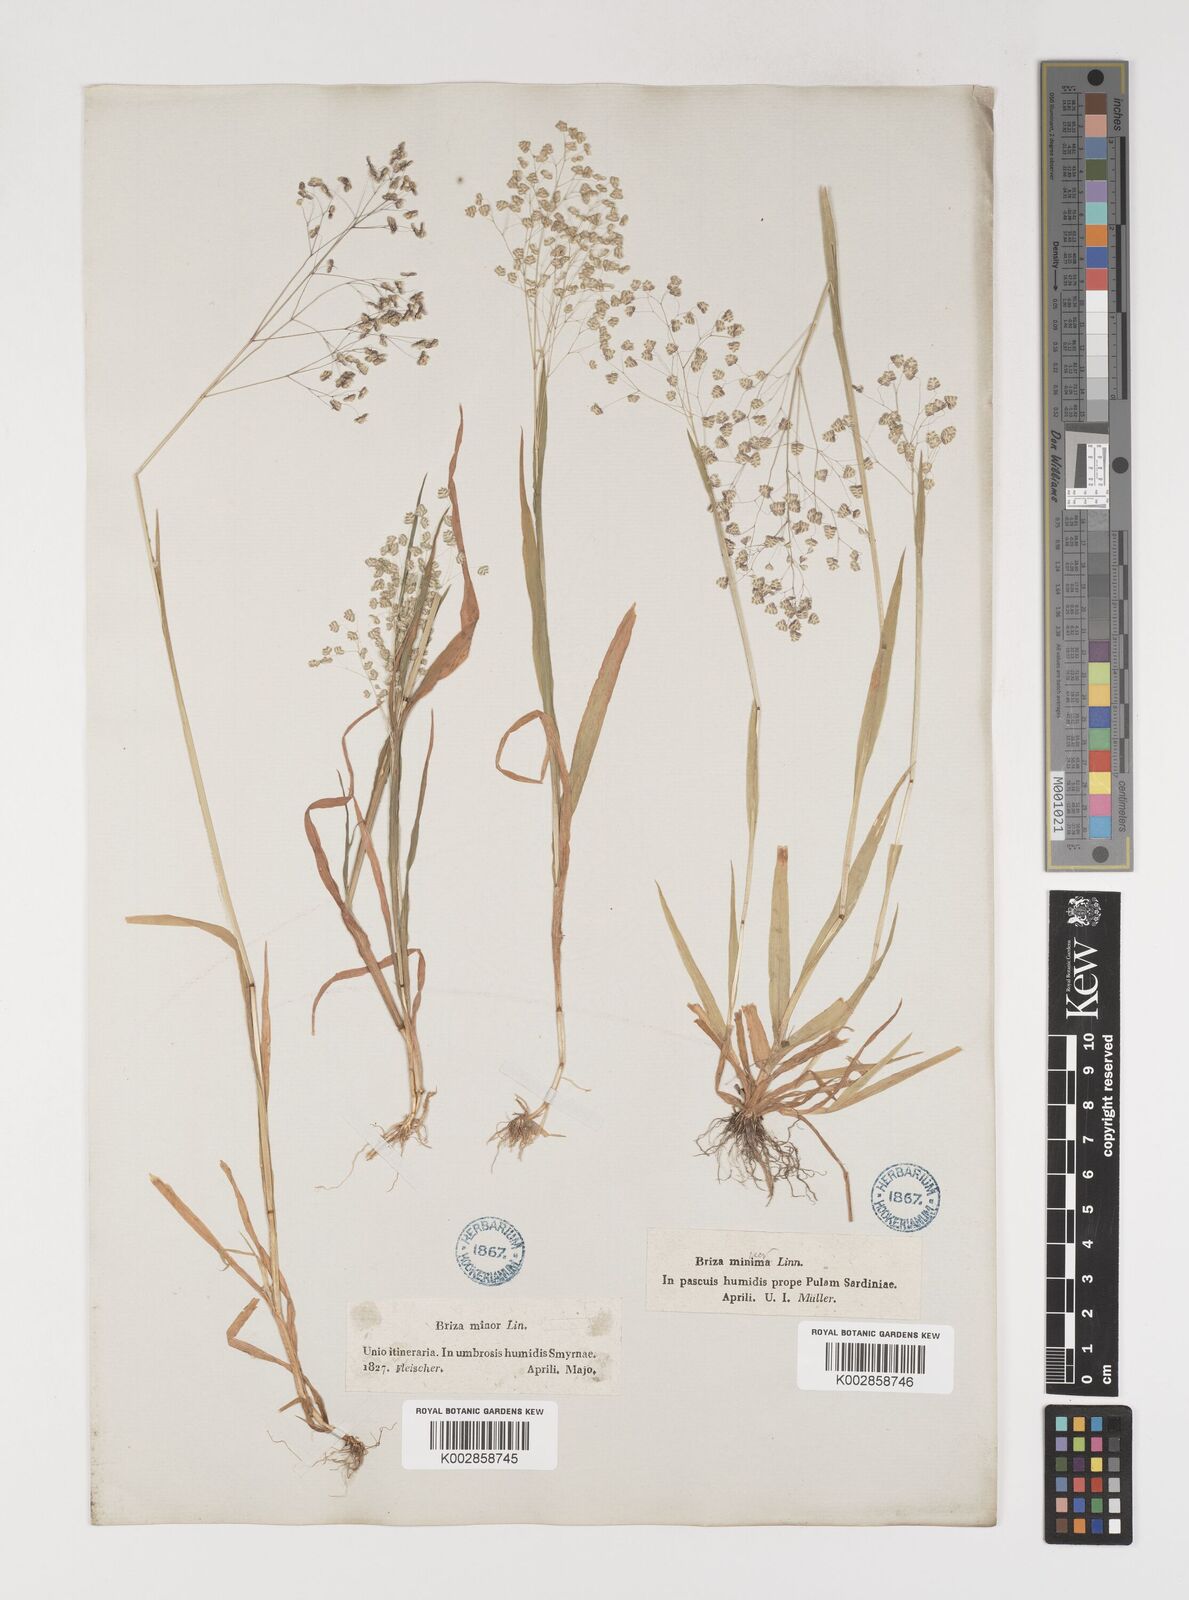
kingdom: Plantae
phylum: Tracheophyta
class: Liliopsida
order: Poales
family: Poaceae
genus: Briza
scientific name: Briza minor
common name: Lesser quaking-grass
